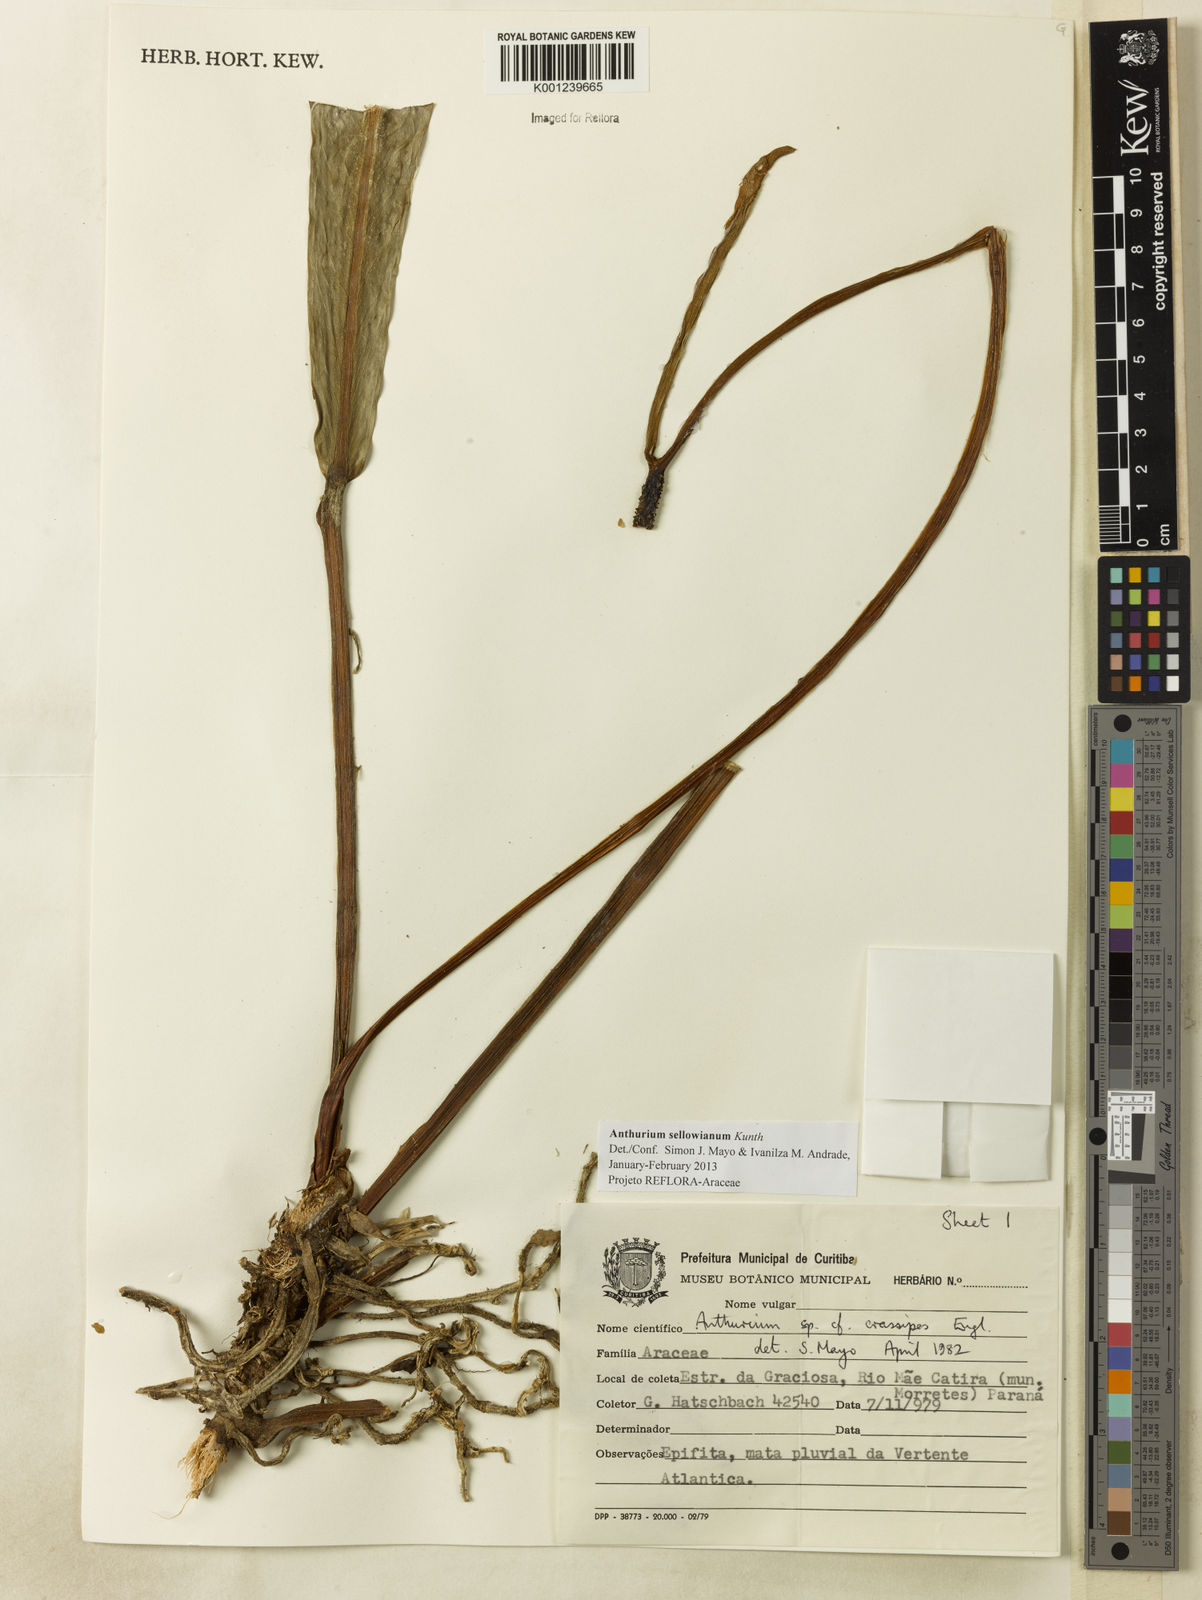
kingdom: Plantae
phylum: Tracheophyta
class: Liliopsida
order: Alismatales
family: Araceae
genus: Anthurium
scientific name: Anthurium sellowianum
